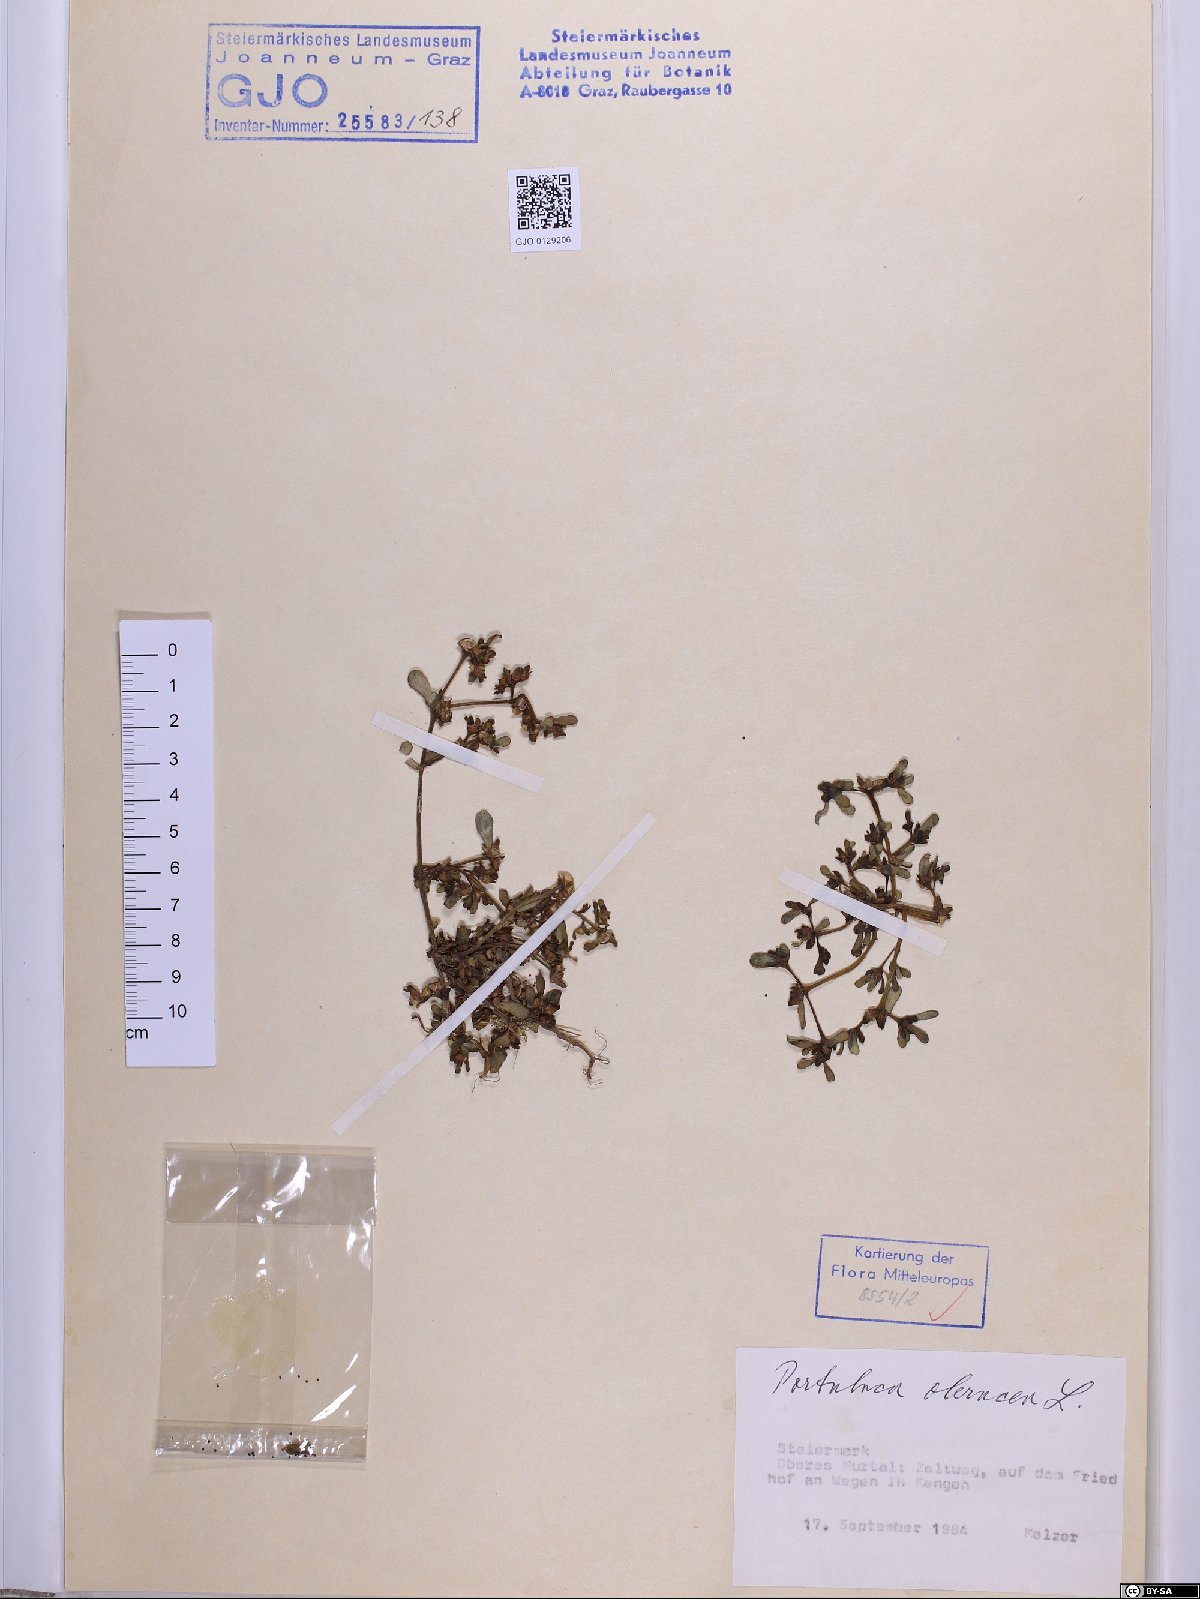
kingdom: Plantae
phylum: Tracheophyta
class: Magnoliopsida
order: Caryophyllales
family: Portulacaceae
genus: Portulaca
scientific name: Portulaca oleracea
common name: Common purslane
